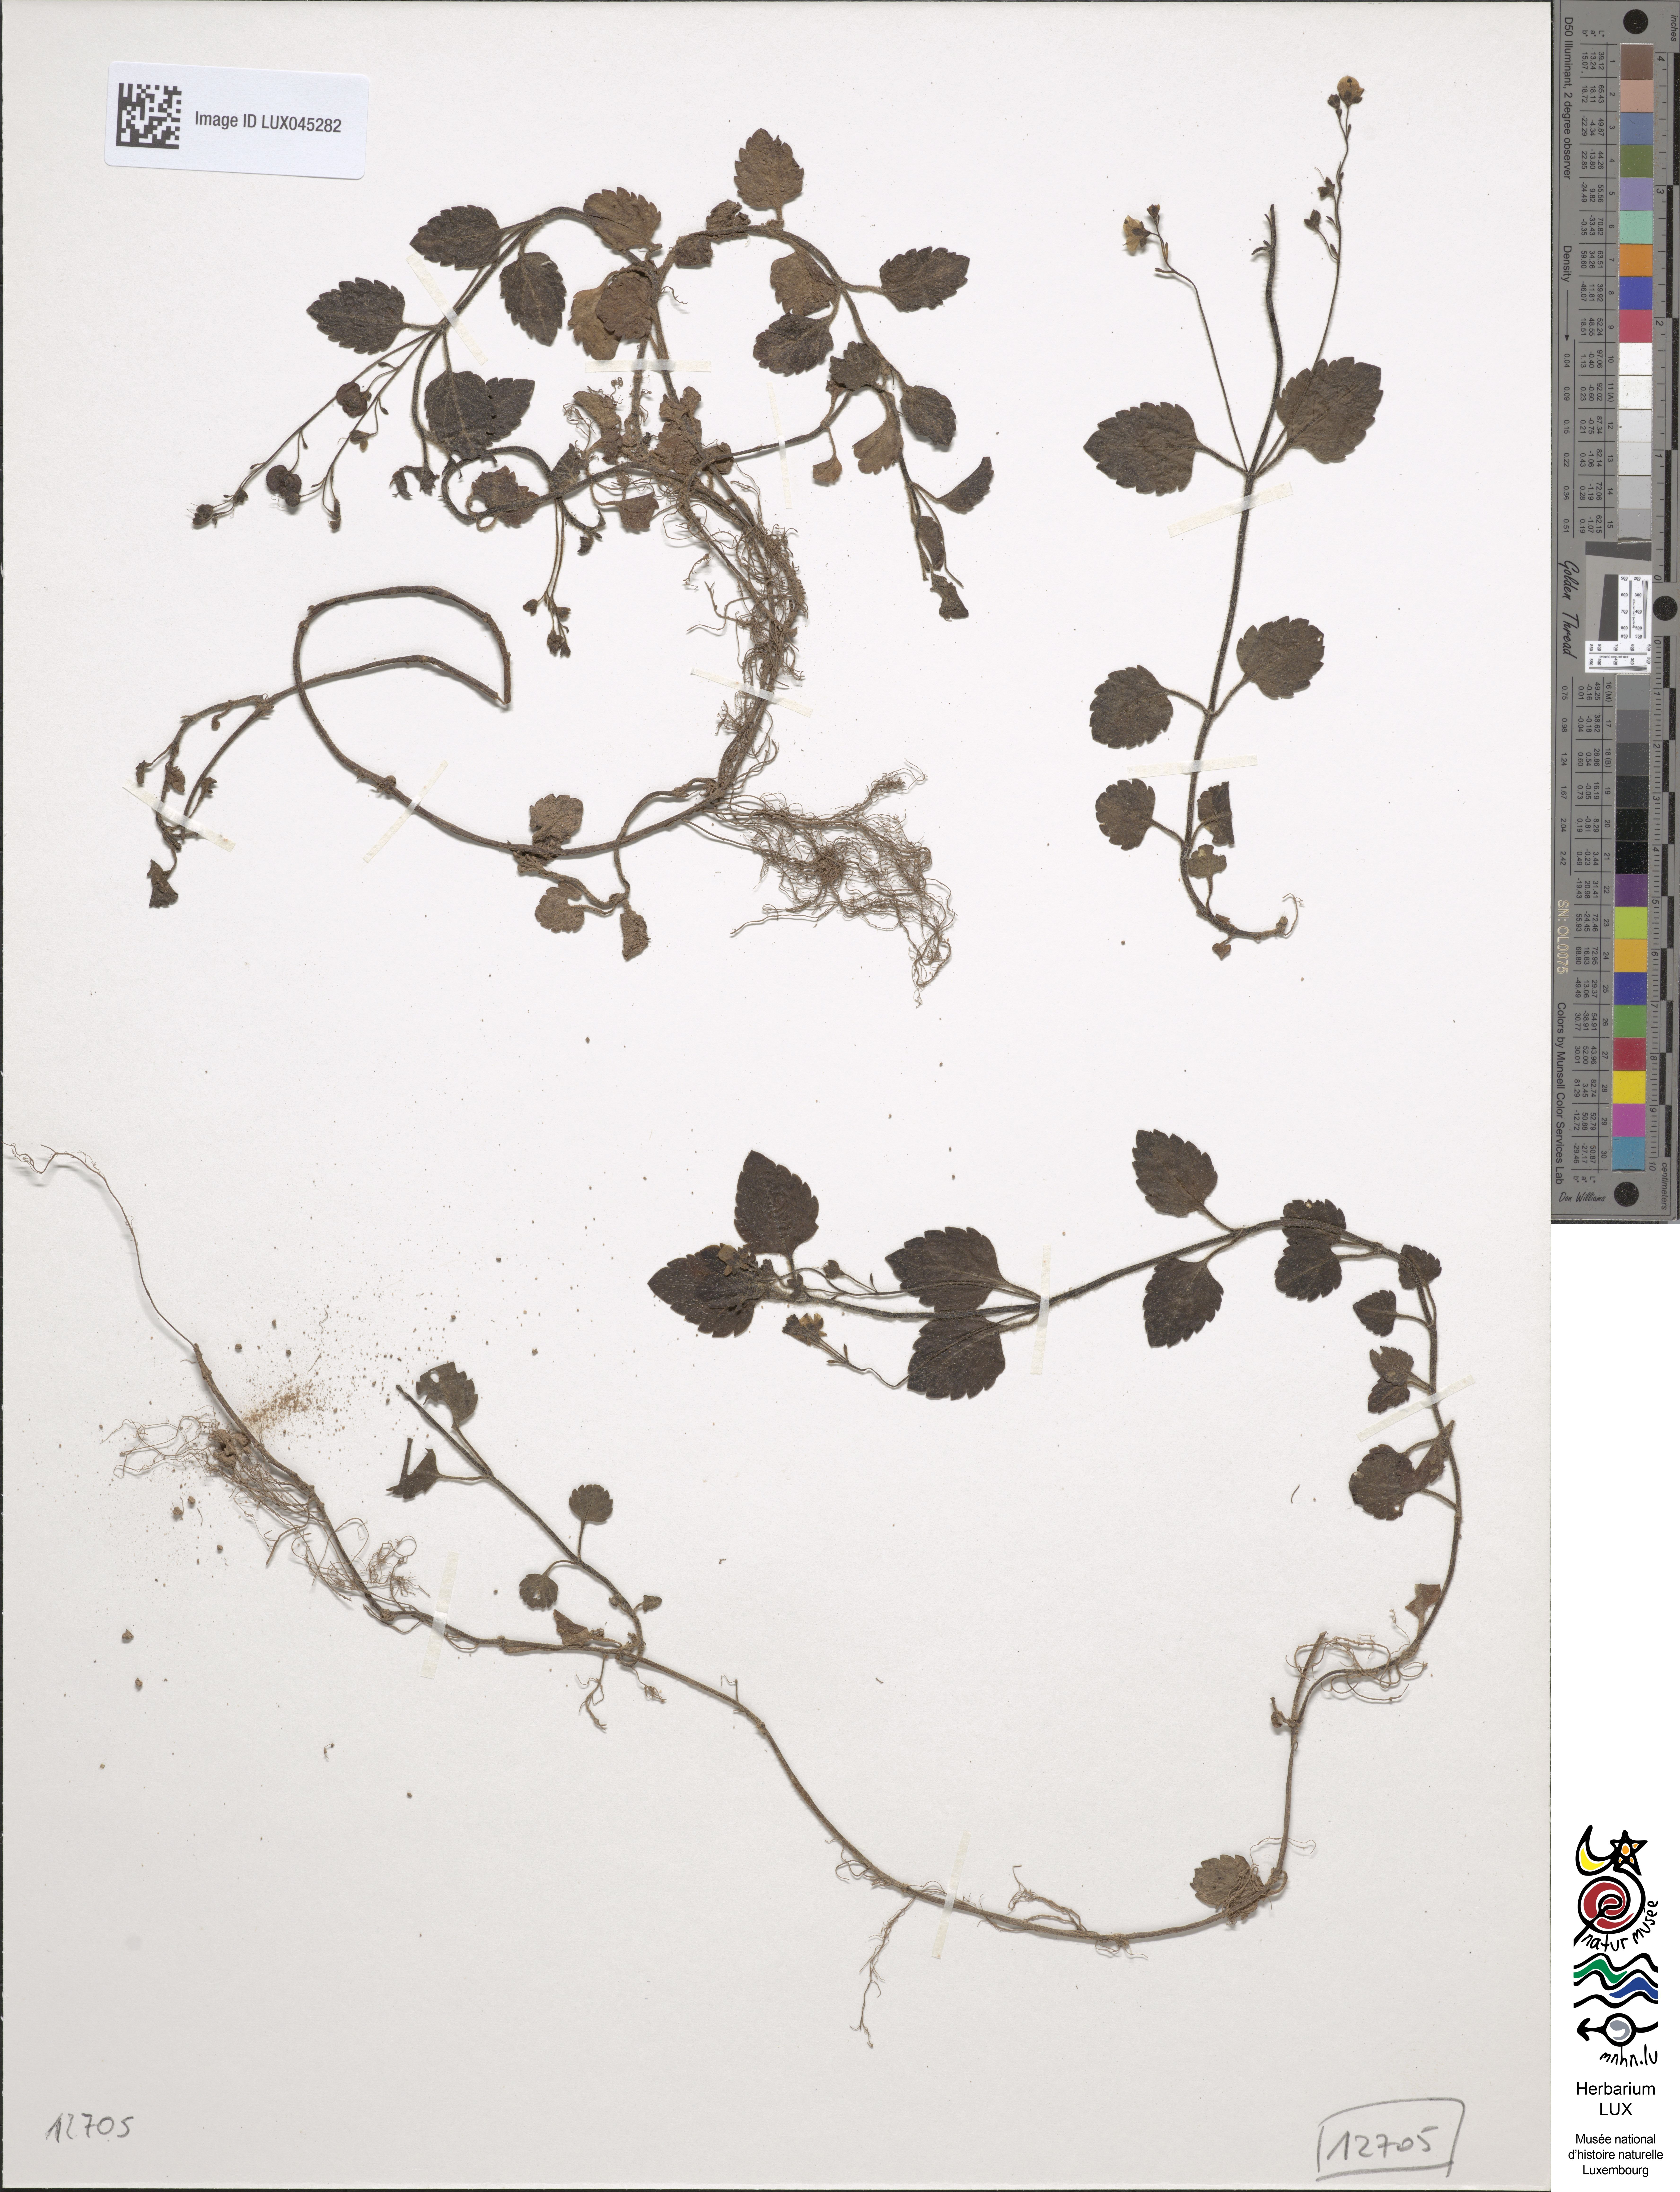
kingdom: Plantae
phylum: Tracheophyta
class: Magnoliopsida
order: Lamiales
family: Plantaginaceae
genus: Veronica
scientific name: Veronica montana
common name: Wood speedwell
